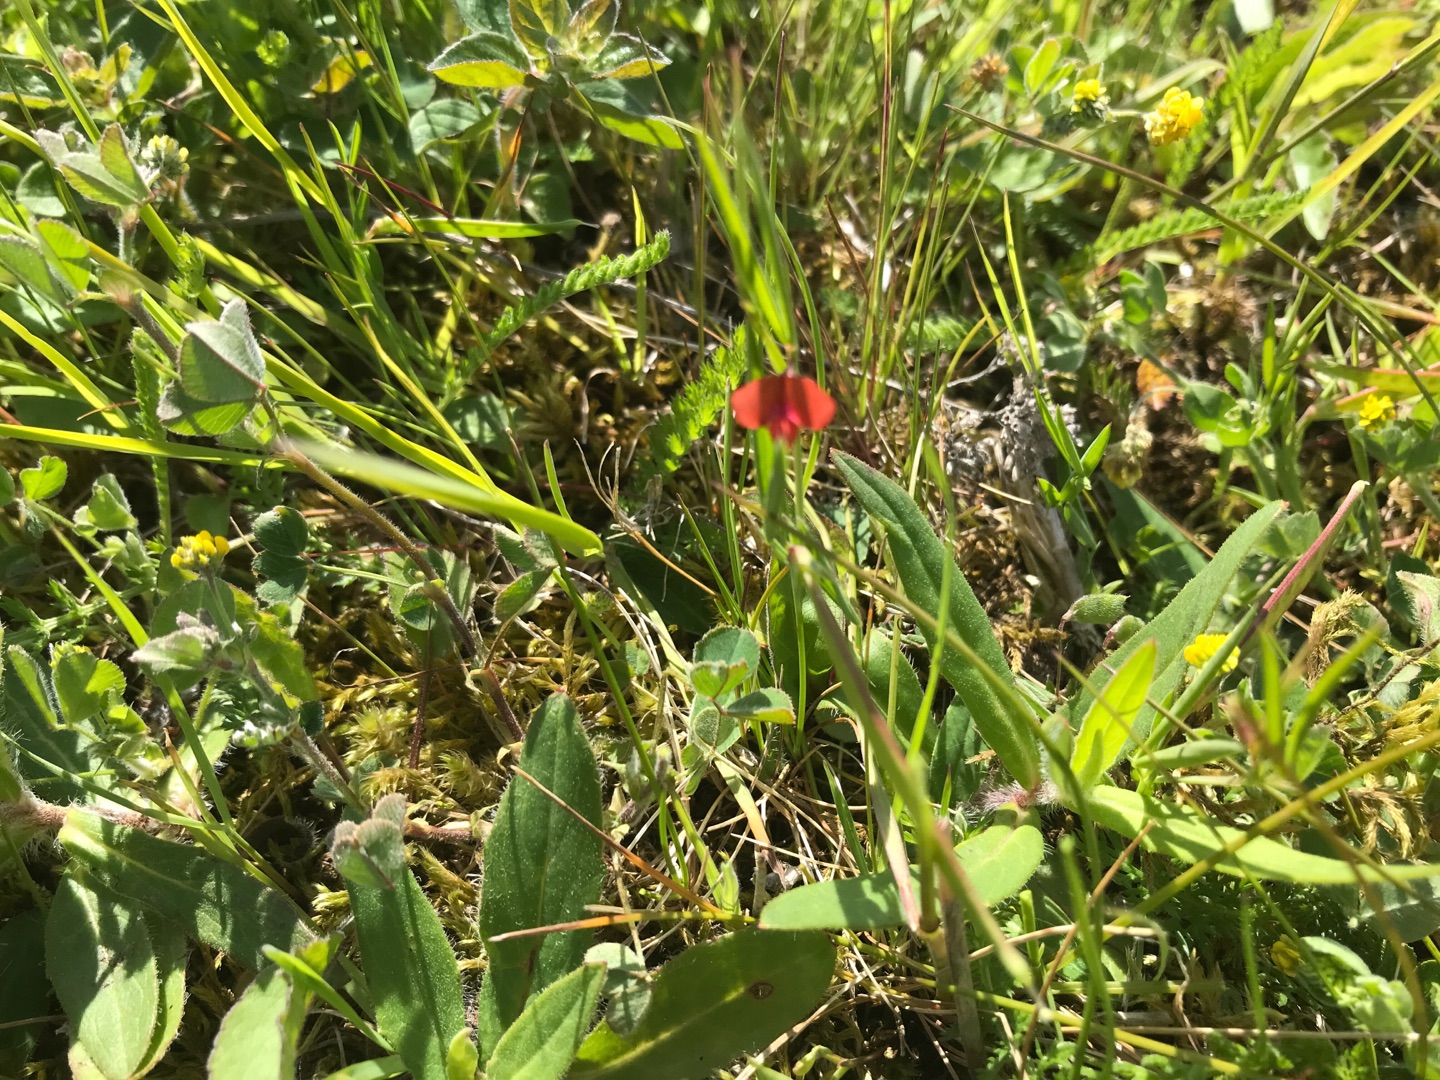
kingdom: Plantae
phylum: Tracheophyta
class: Magnoliopsida
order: Fabales
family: Fabaceae
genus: Lathyrus
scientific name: Lathyrus sphaericus
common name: Enblomstret fladbælg
